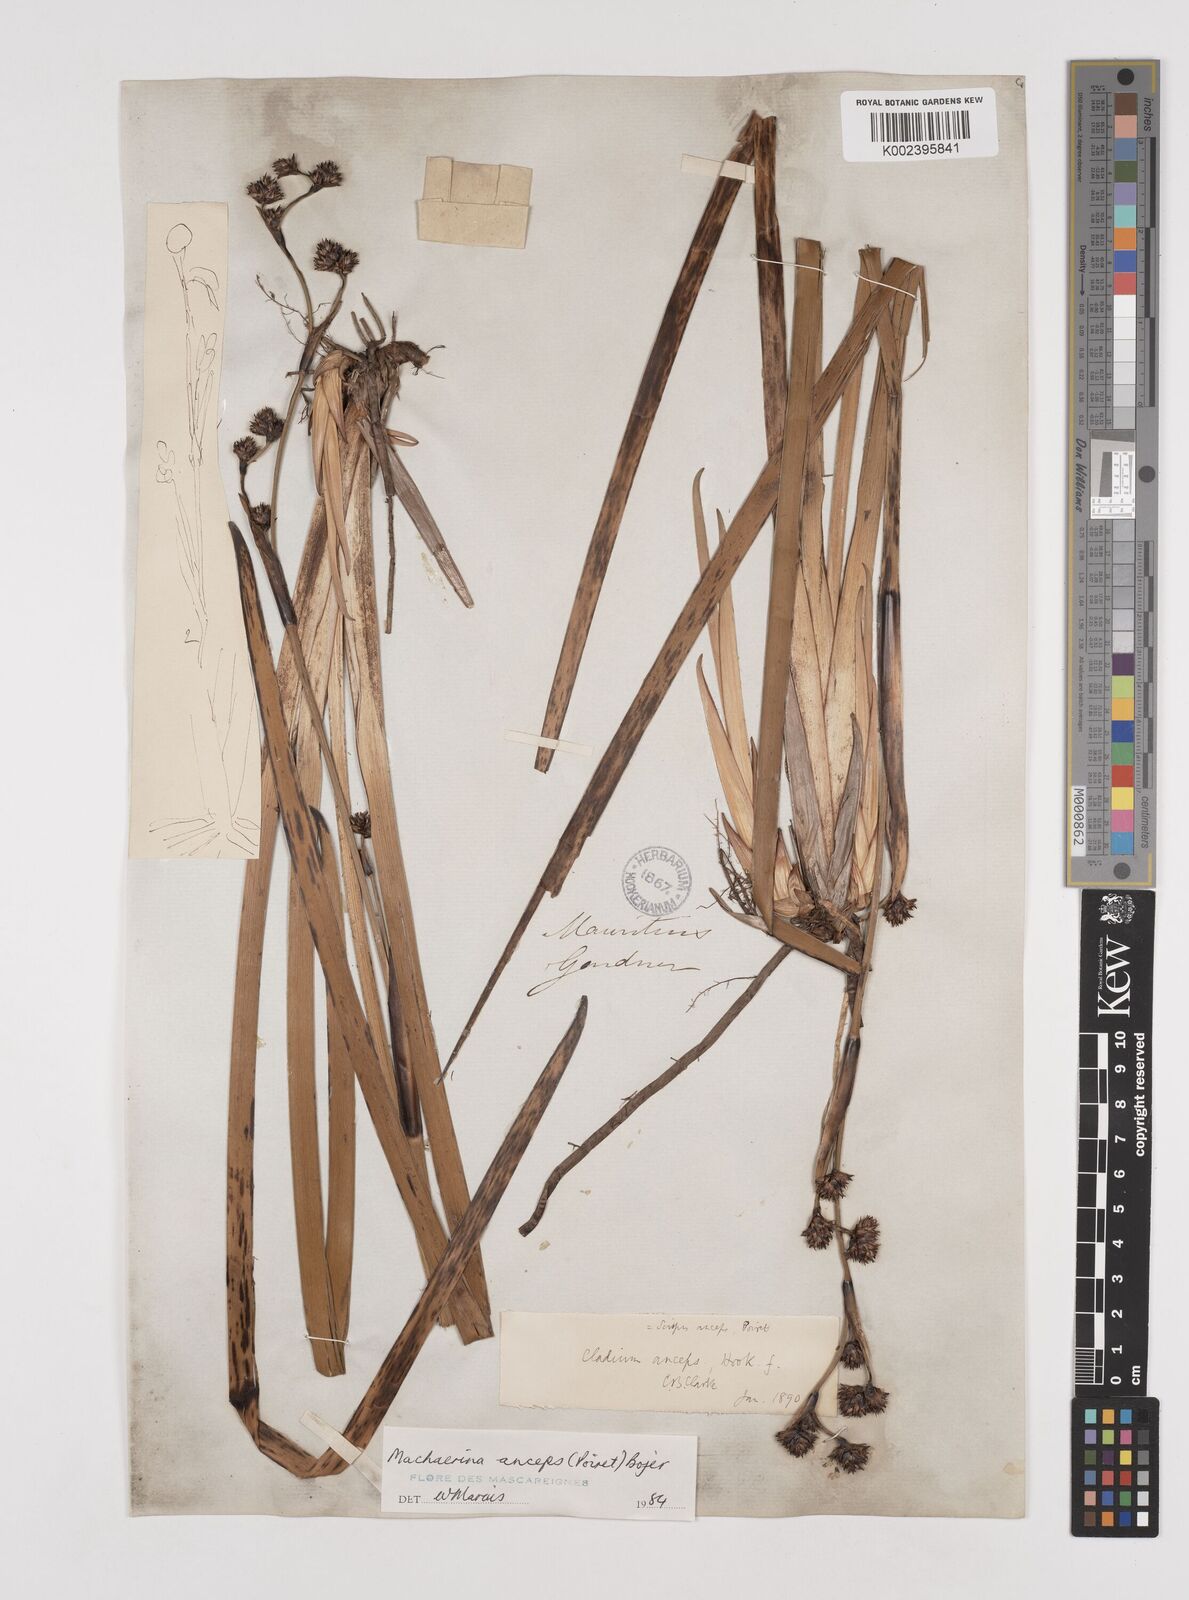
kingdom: Plantae
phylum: Tracheophyta
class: Liliopsida
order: Poales
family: Cyperaceae
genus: Machaerina
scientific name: Machaerina anceps
